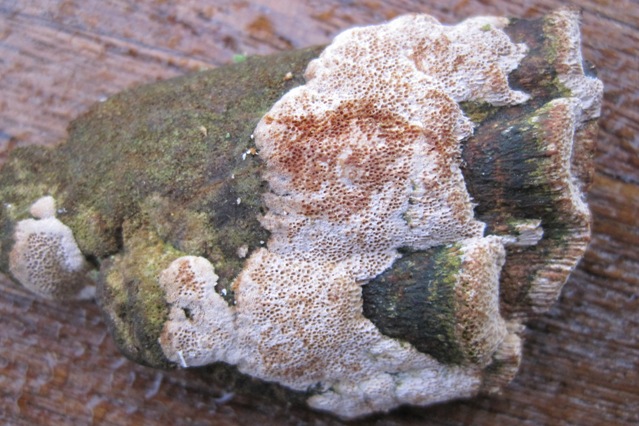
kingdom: Fungi
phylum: Basidiomycota
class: Agaricomycetes
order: Hymenochaetales
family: Hymenochaetaceae
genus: Fuscoporia
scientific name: Fuscoporia ferrea
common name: skorpe-ildporesvamp
